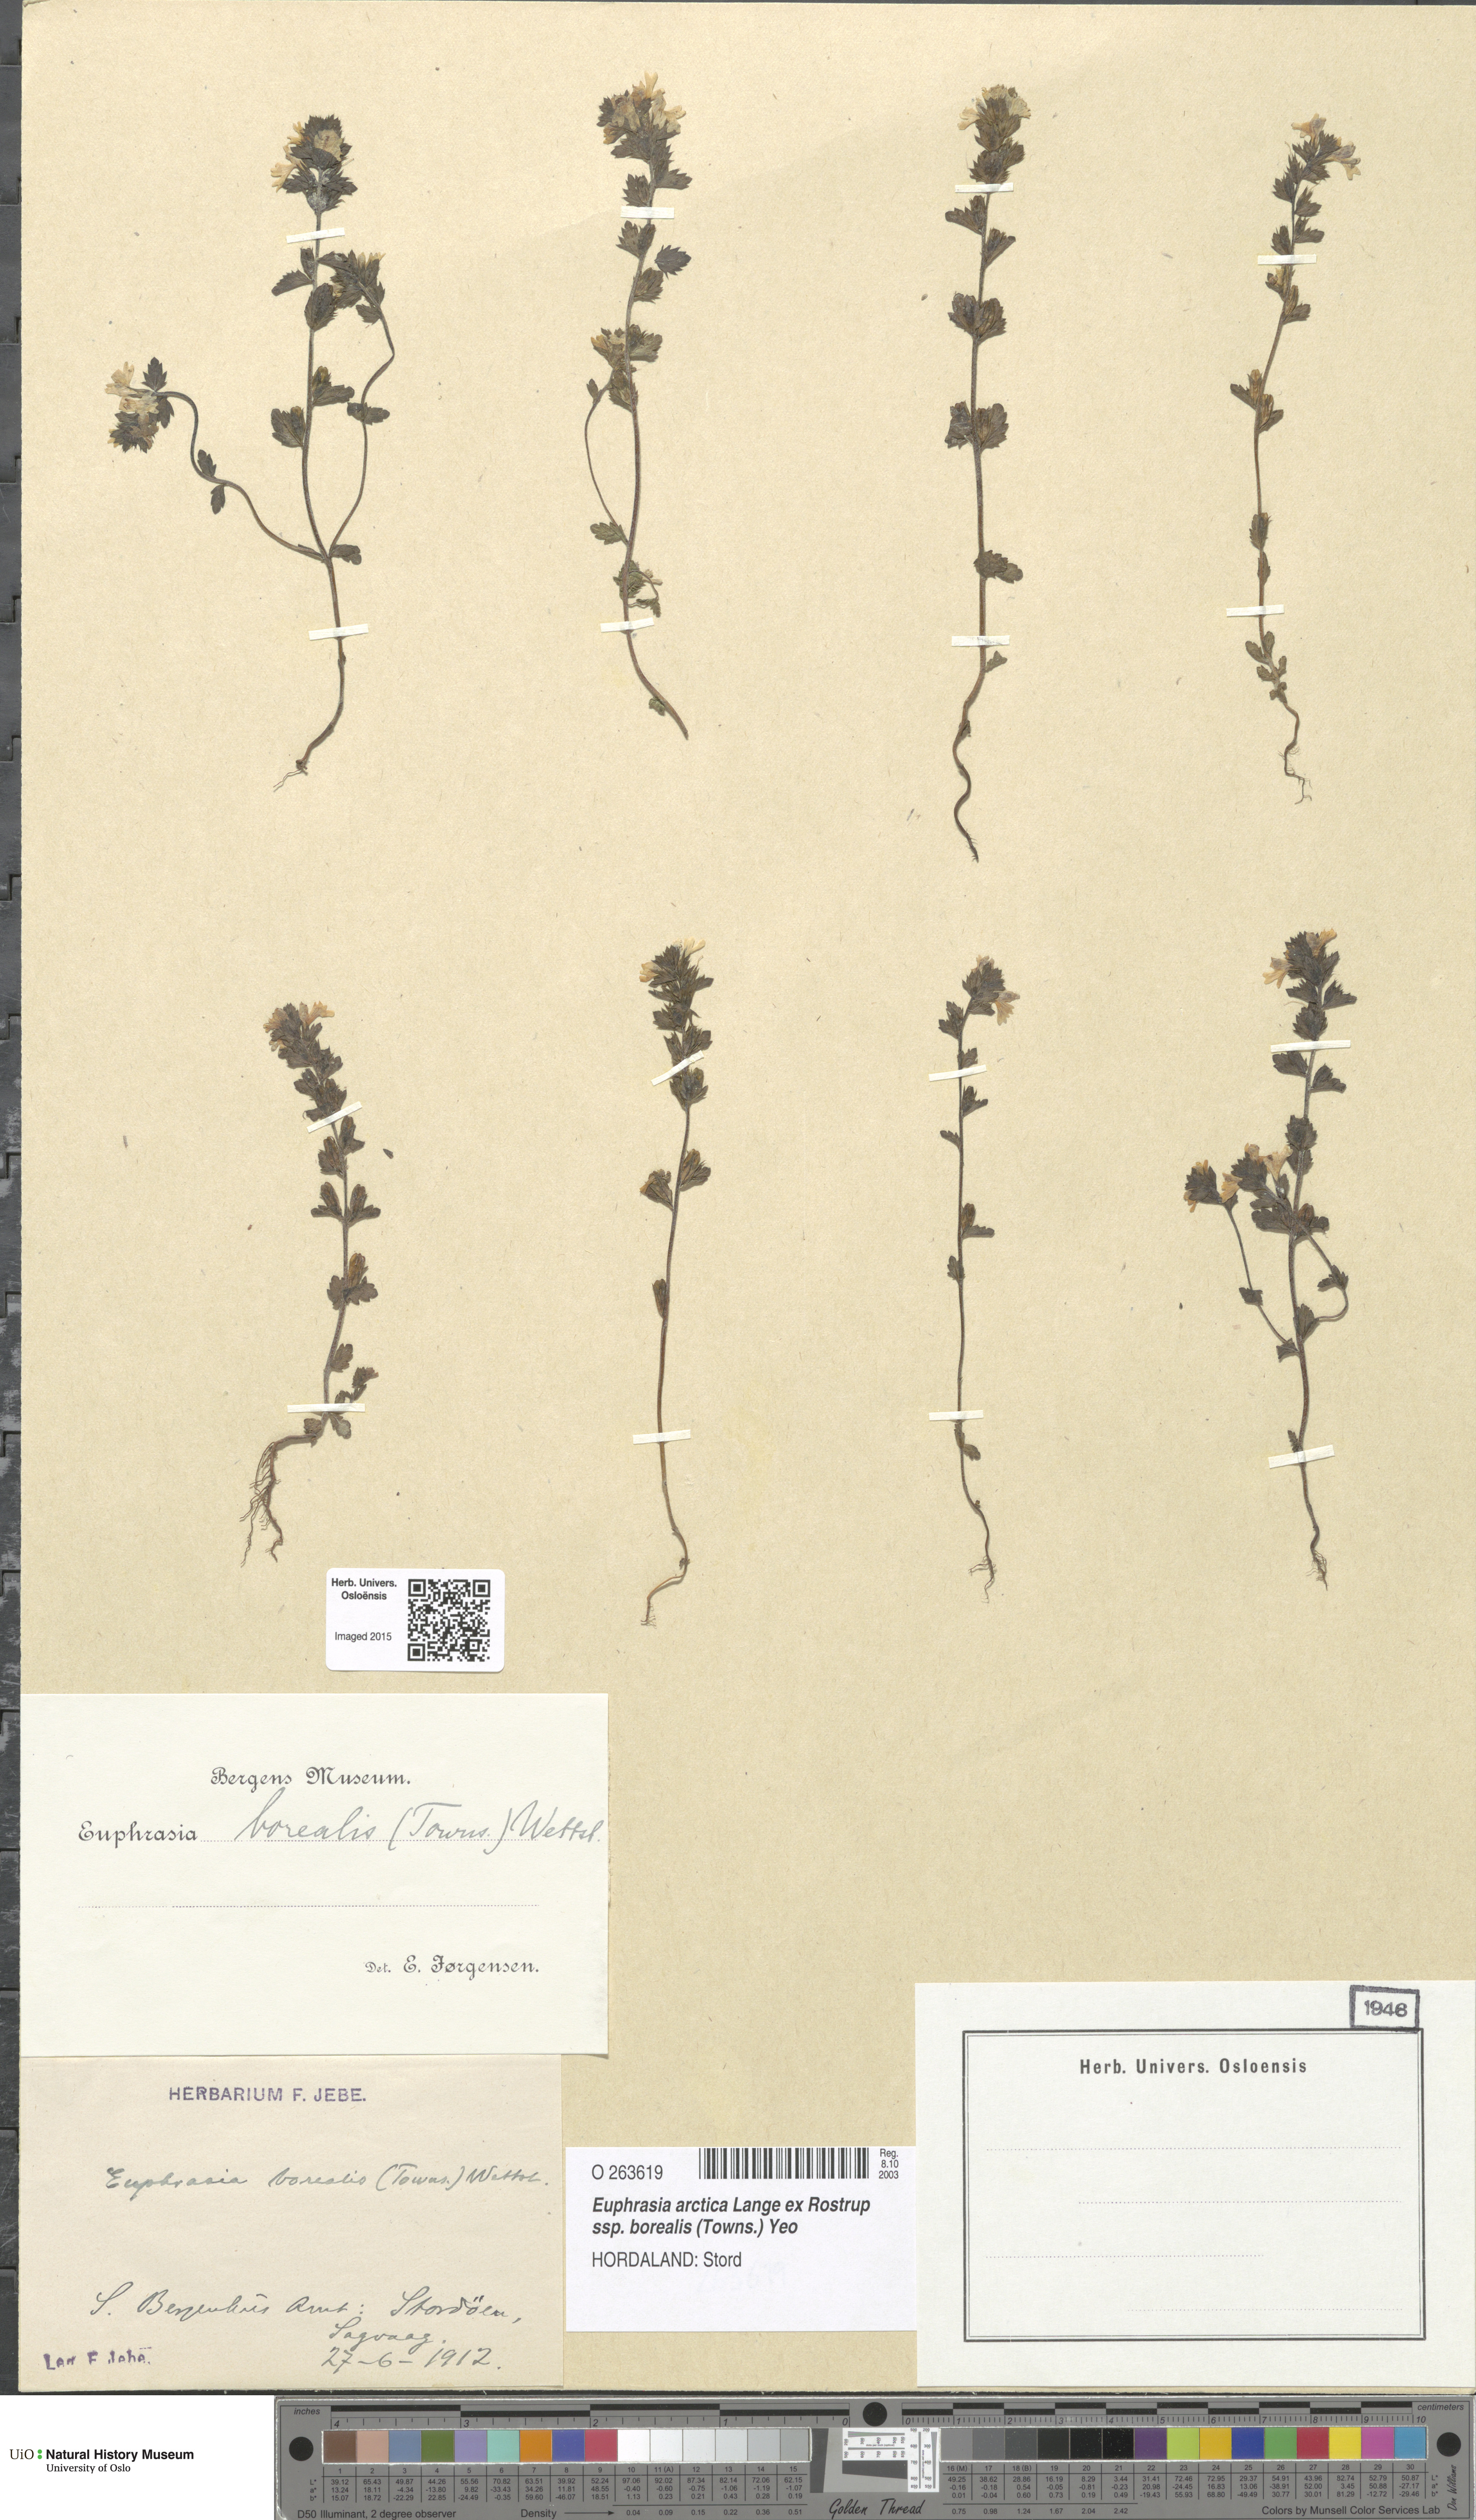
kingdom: Plantae
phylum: Tracheophyta
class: Magnoliopsida
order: Lamiales
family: Orobanchaceae
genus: Euphrasia
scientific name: Euphrasia arctica
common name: An eyebright
